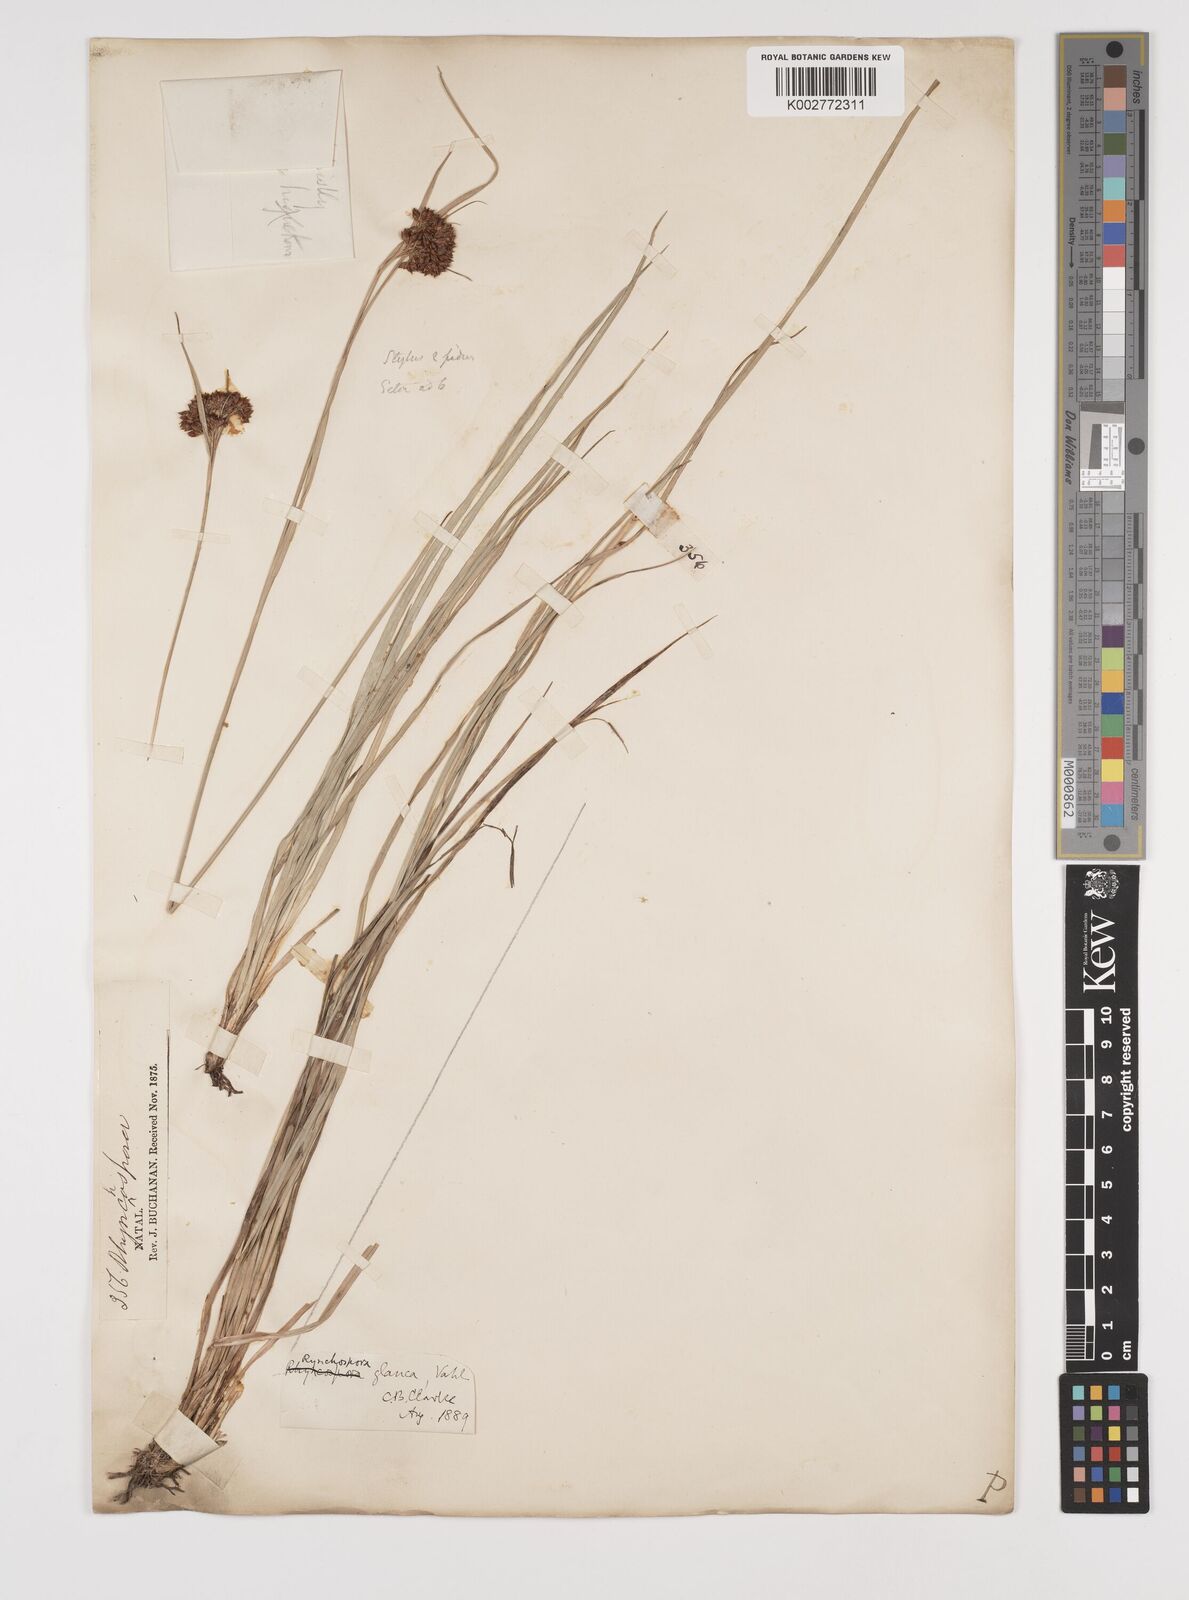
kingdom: Plantae
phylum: Tracheophyta
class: Liliopsida
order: Poales
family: Cyperaceae
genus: Rhynchospora
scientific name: Rhynchospora rugosa
